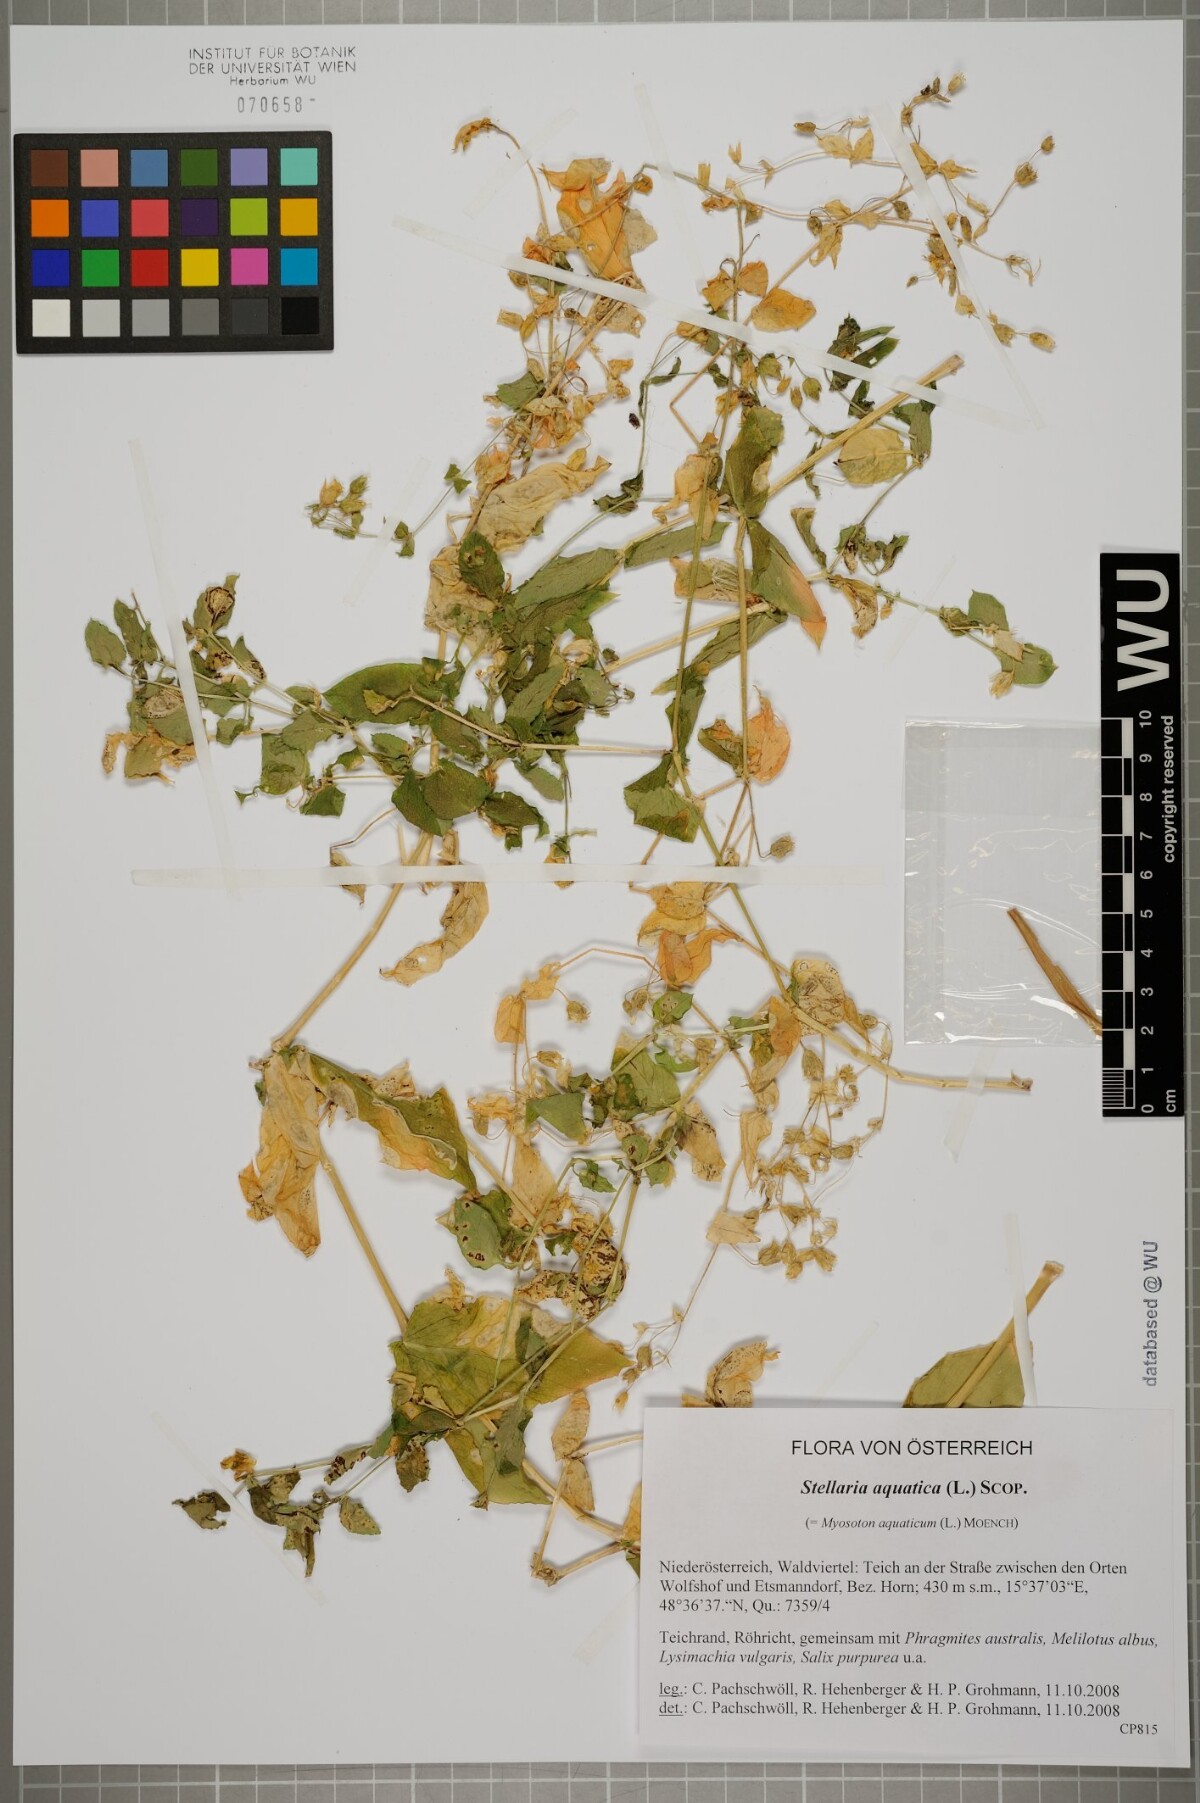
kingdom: Plantae
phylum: Tracheophyta
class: Magnoliopsida
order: Caryophyllales
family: Caryophyllaceae
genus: Stellaria
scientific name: Stellaria aquatica
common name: Water chickweed
